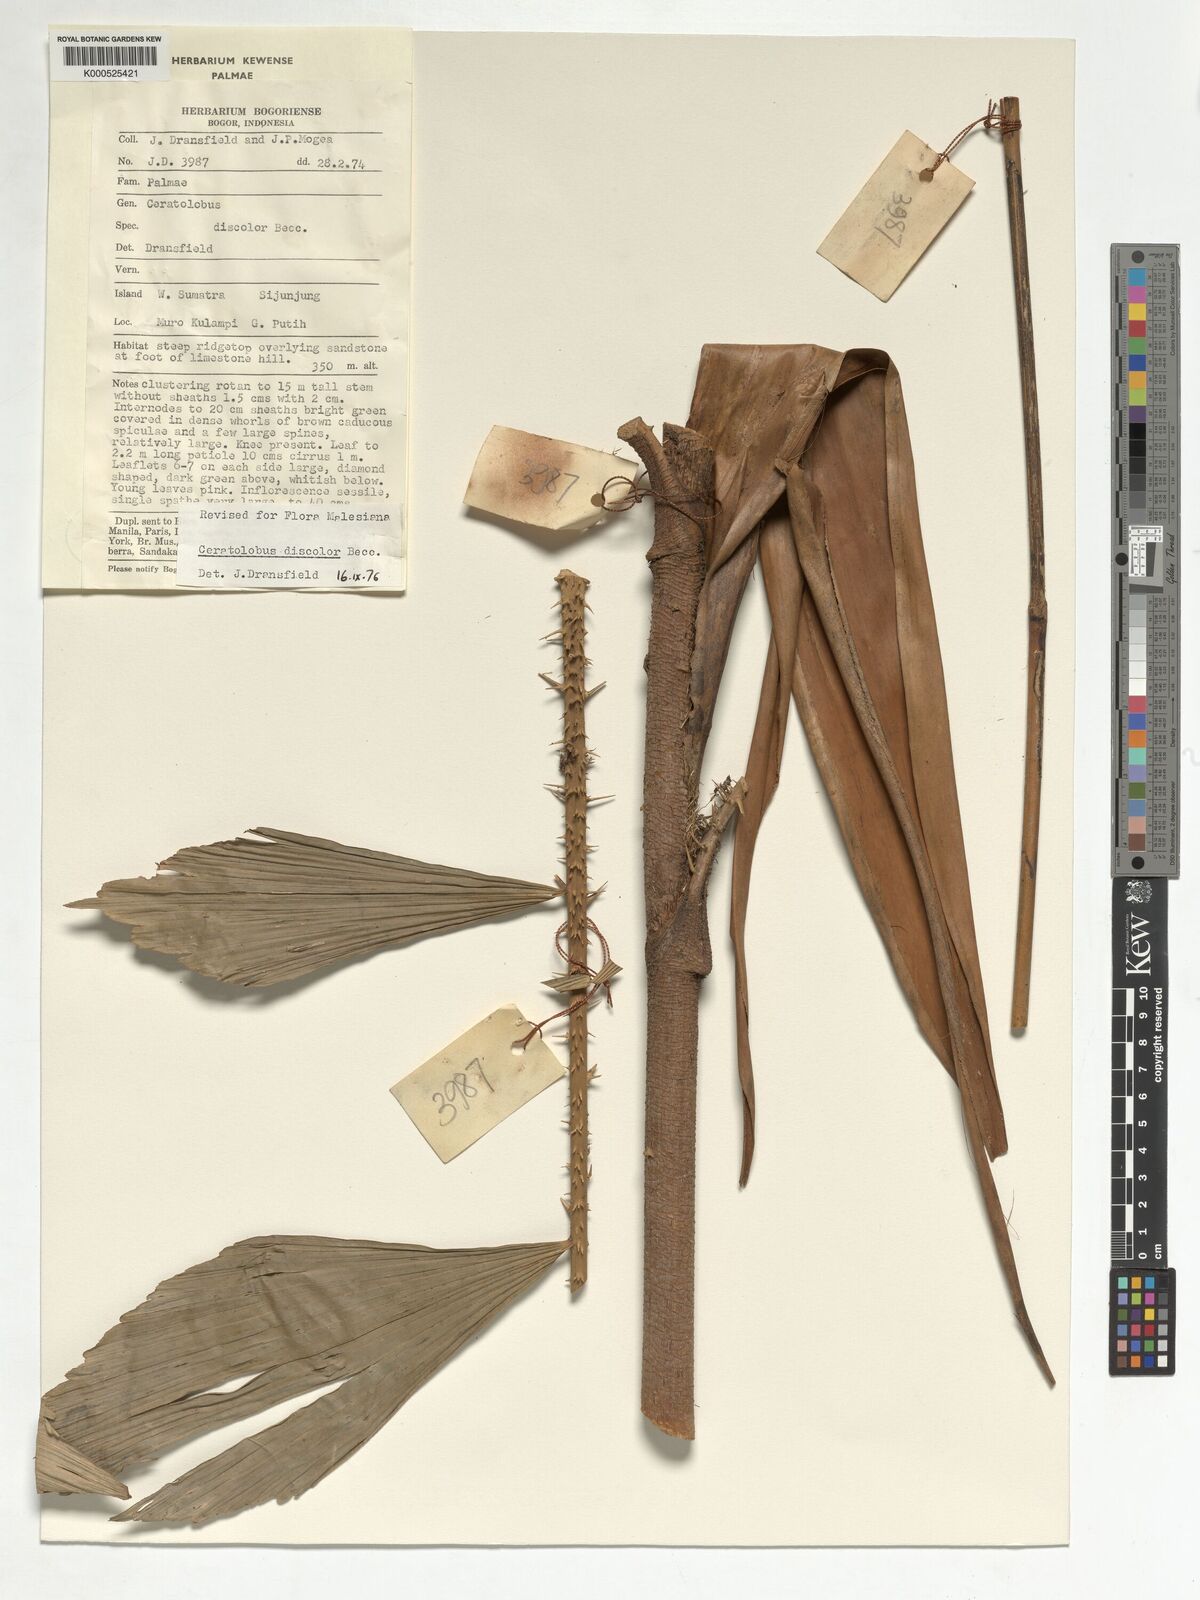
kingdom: Plantae
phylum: Tracheophyta
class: Liliopsida
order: Arecales
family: Arecaceae
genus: Calamus
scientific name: Calamus hallierianus
